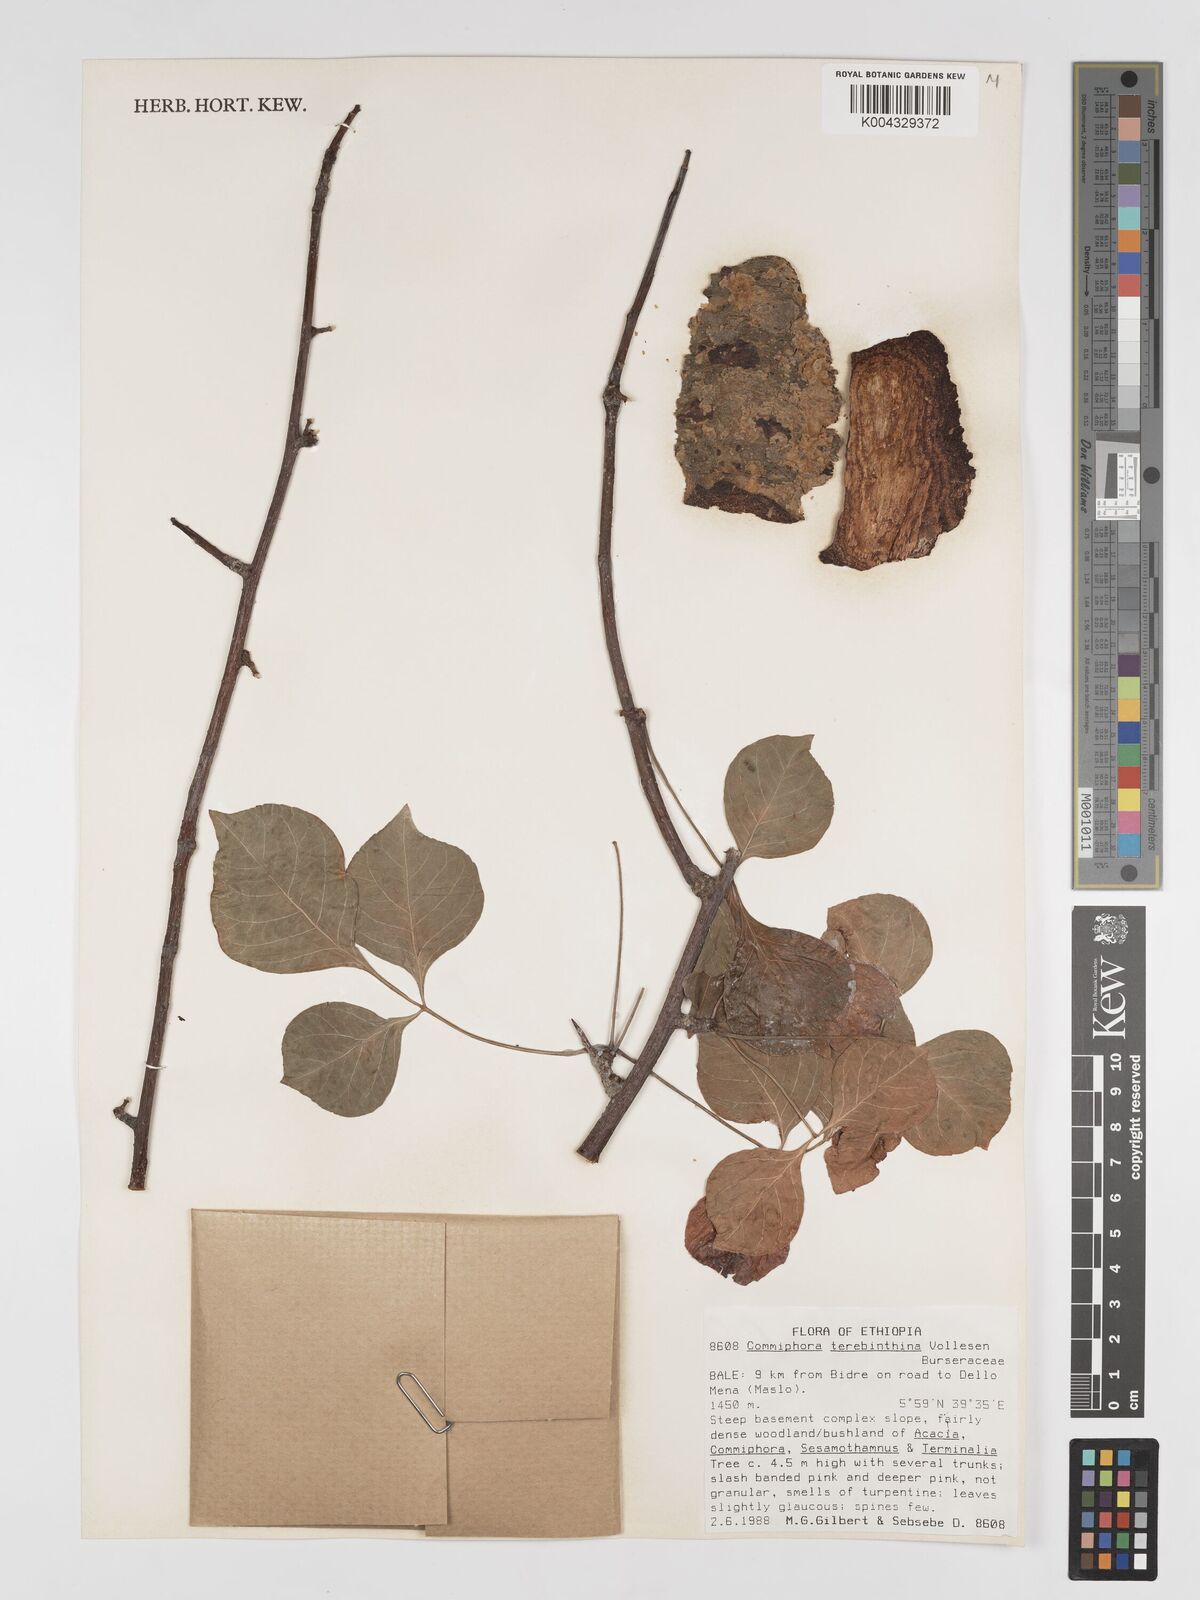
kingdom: Plantae
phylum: Tracheophyta
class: Magnoliopsida
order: Sapindales
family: Burseraceae
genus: Commiphora
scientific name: Commiphora samharensis
